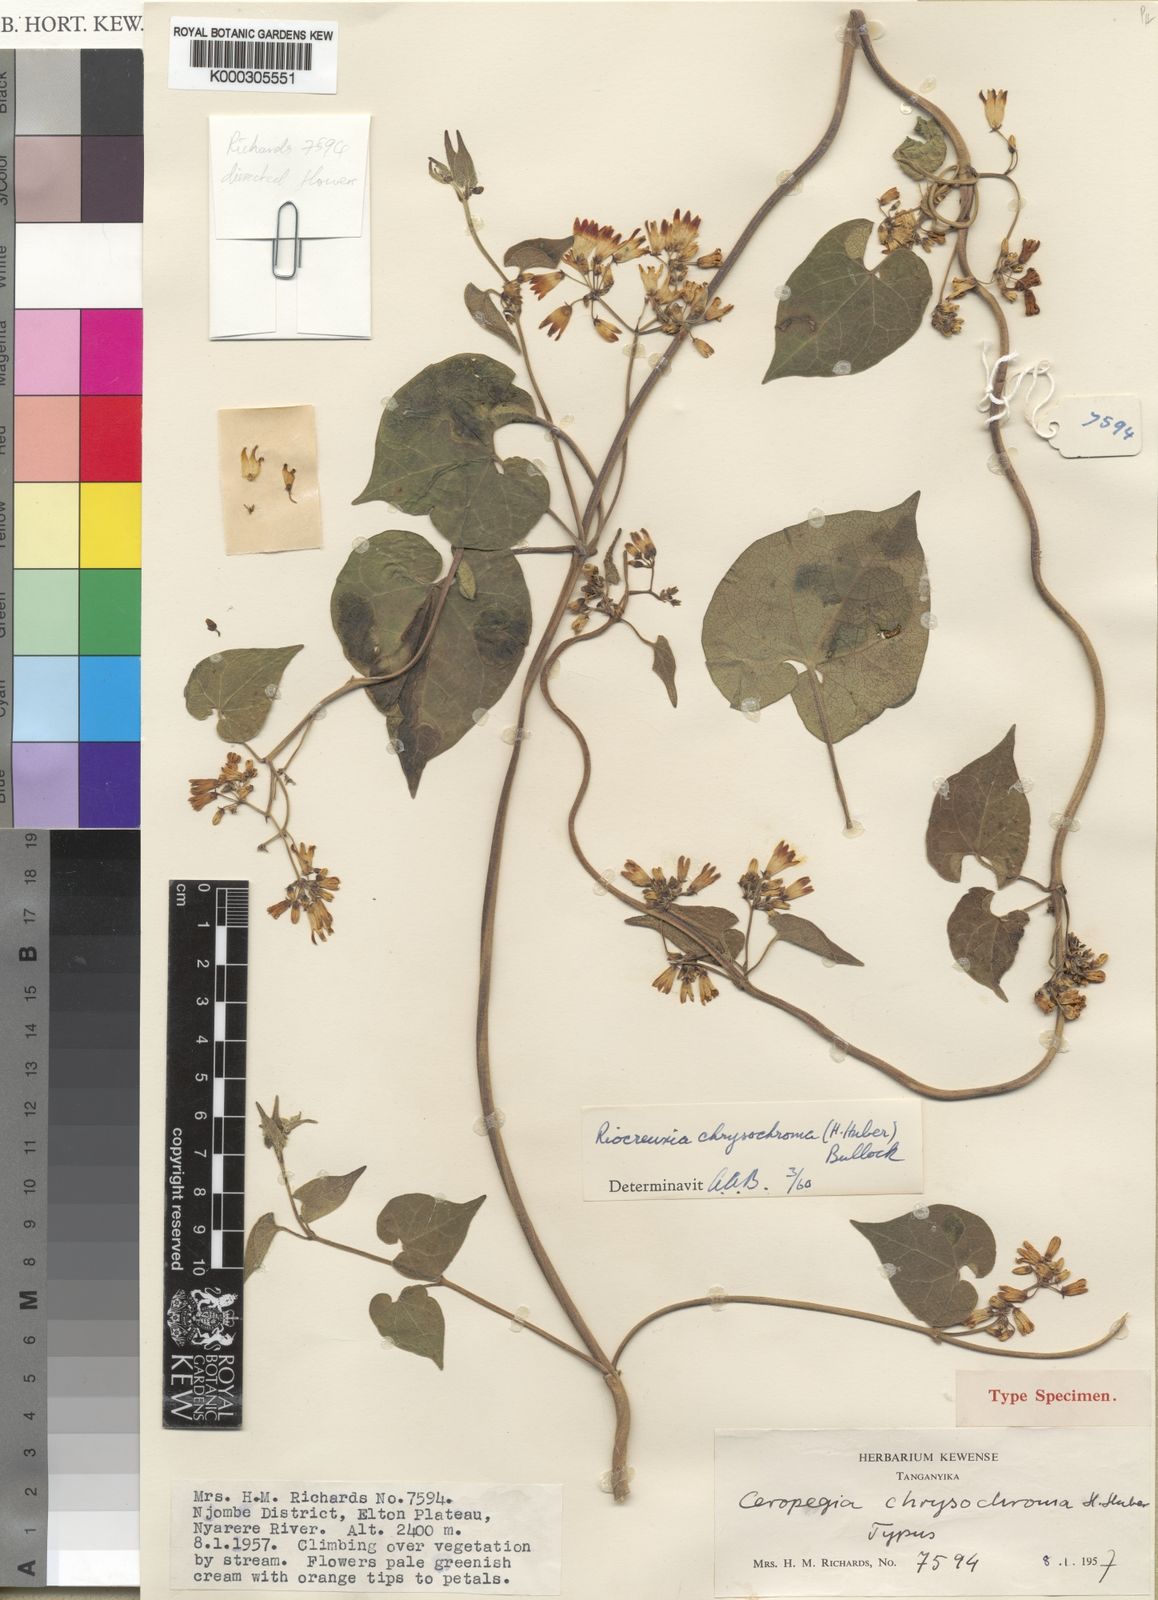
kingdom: Plantae
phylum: Tracheophyta
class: Magnoliopsida
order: Gentianales
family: Apocynaceae
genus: Riocreuxia
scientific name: Riocreuxia
